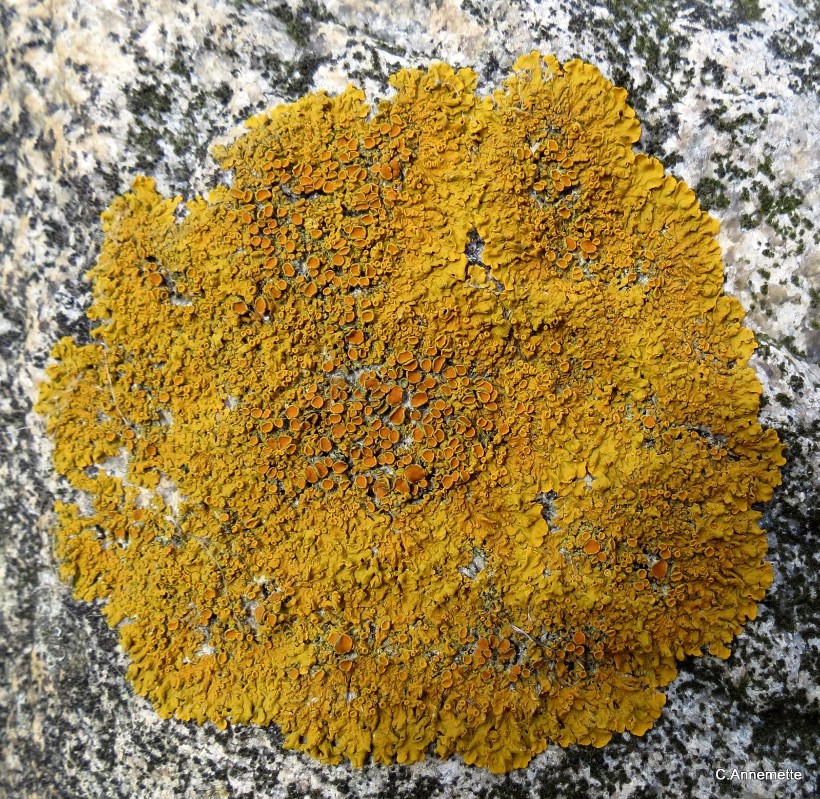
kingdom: Fungi
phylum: Ascomycota
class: Lecanoromycetes
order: Teloschistales
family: Teloschistaceae
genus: Xanthoria
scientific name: Xanthoria parietina
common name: almindelig væggelav
